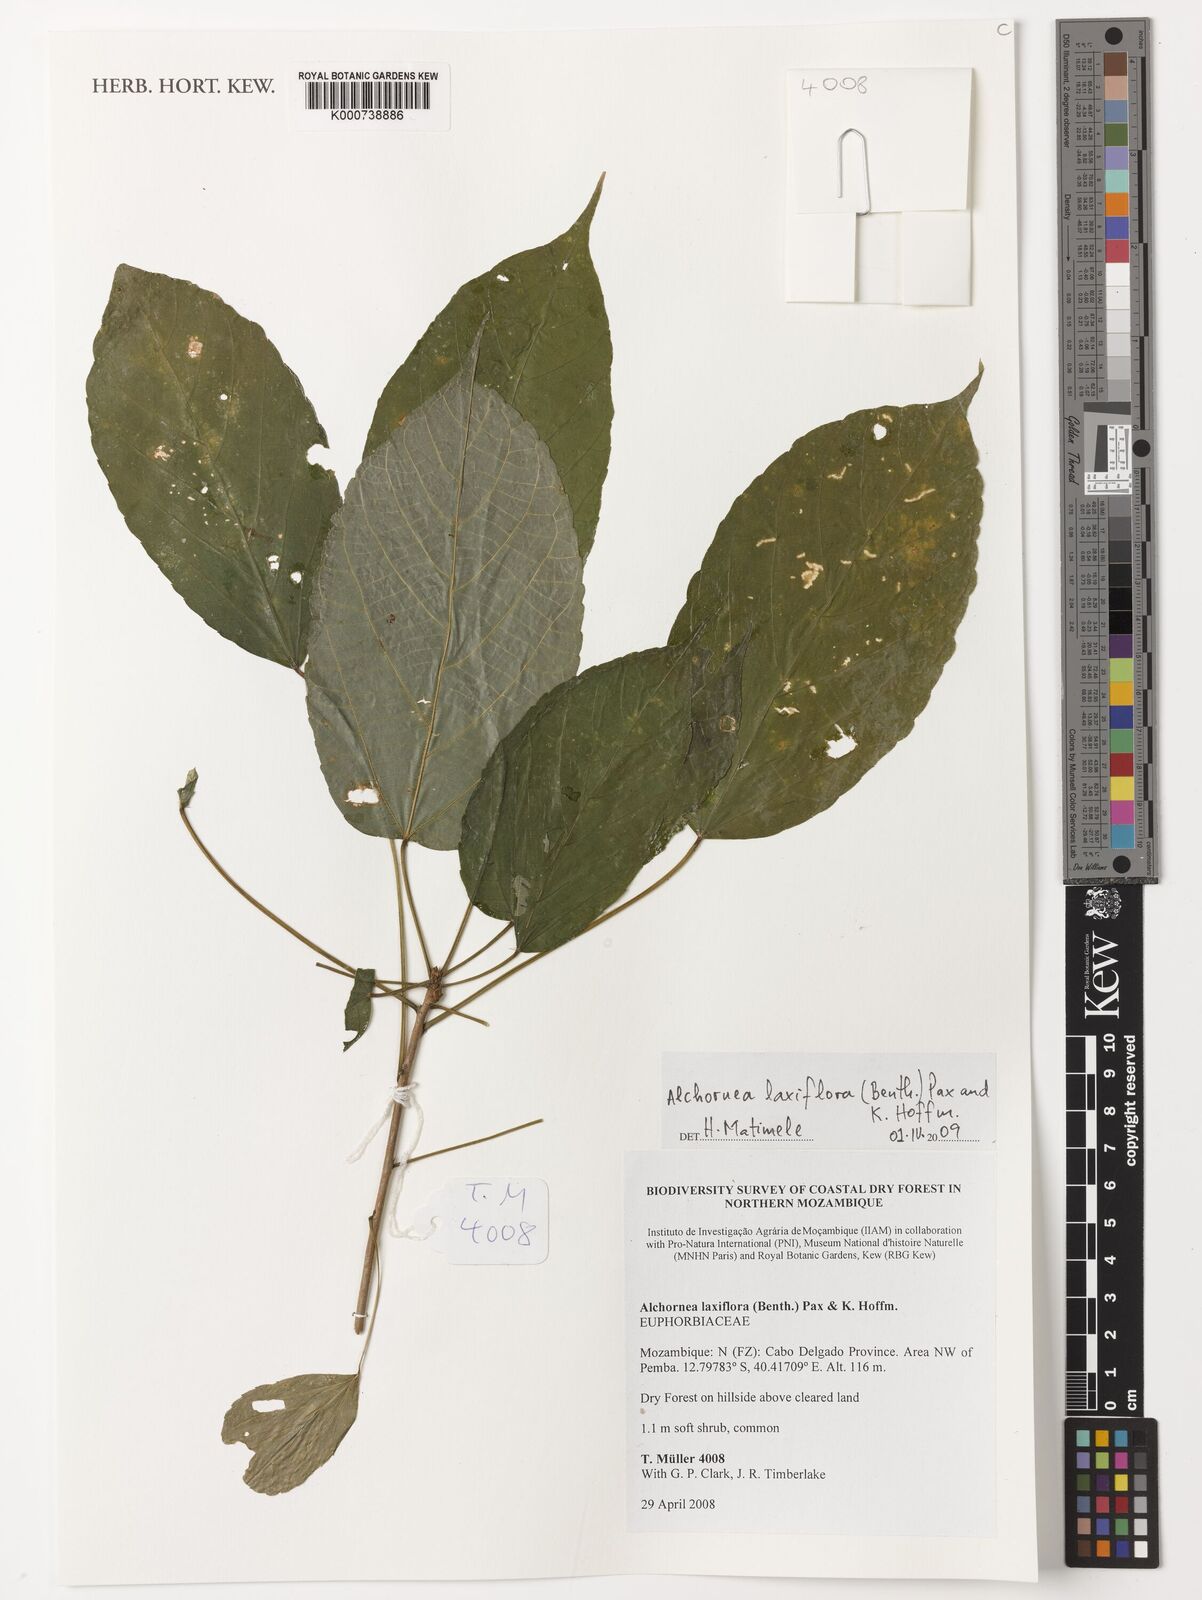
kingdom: Plantae
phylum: Tracheophyta
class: Magnoliopsida
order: Malpighiales
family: Euphorbiaceae
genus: Alchornea
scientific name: Alchornea laxiflora
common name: Lowveld bead-string
